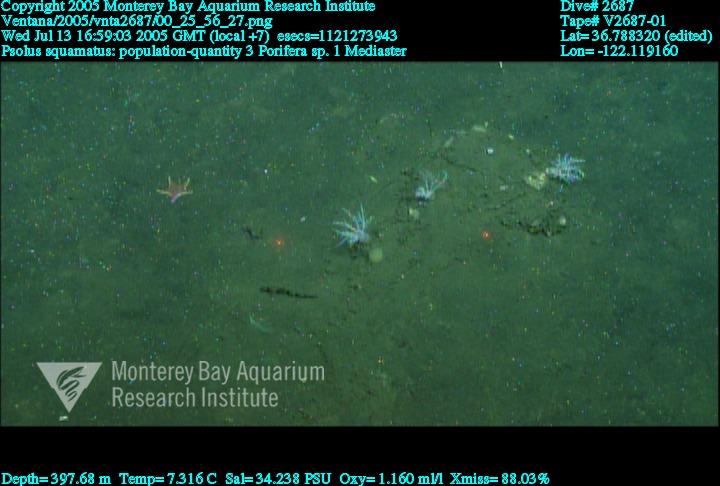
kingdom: Animalia
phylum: Porifera
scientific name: Porifera
